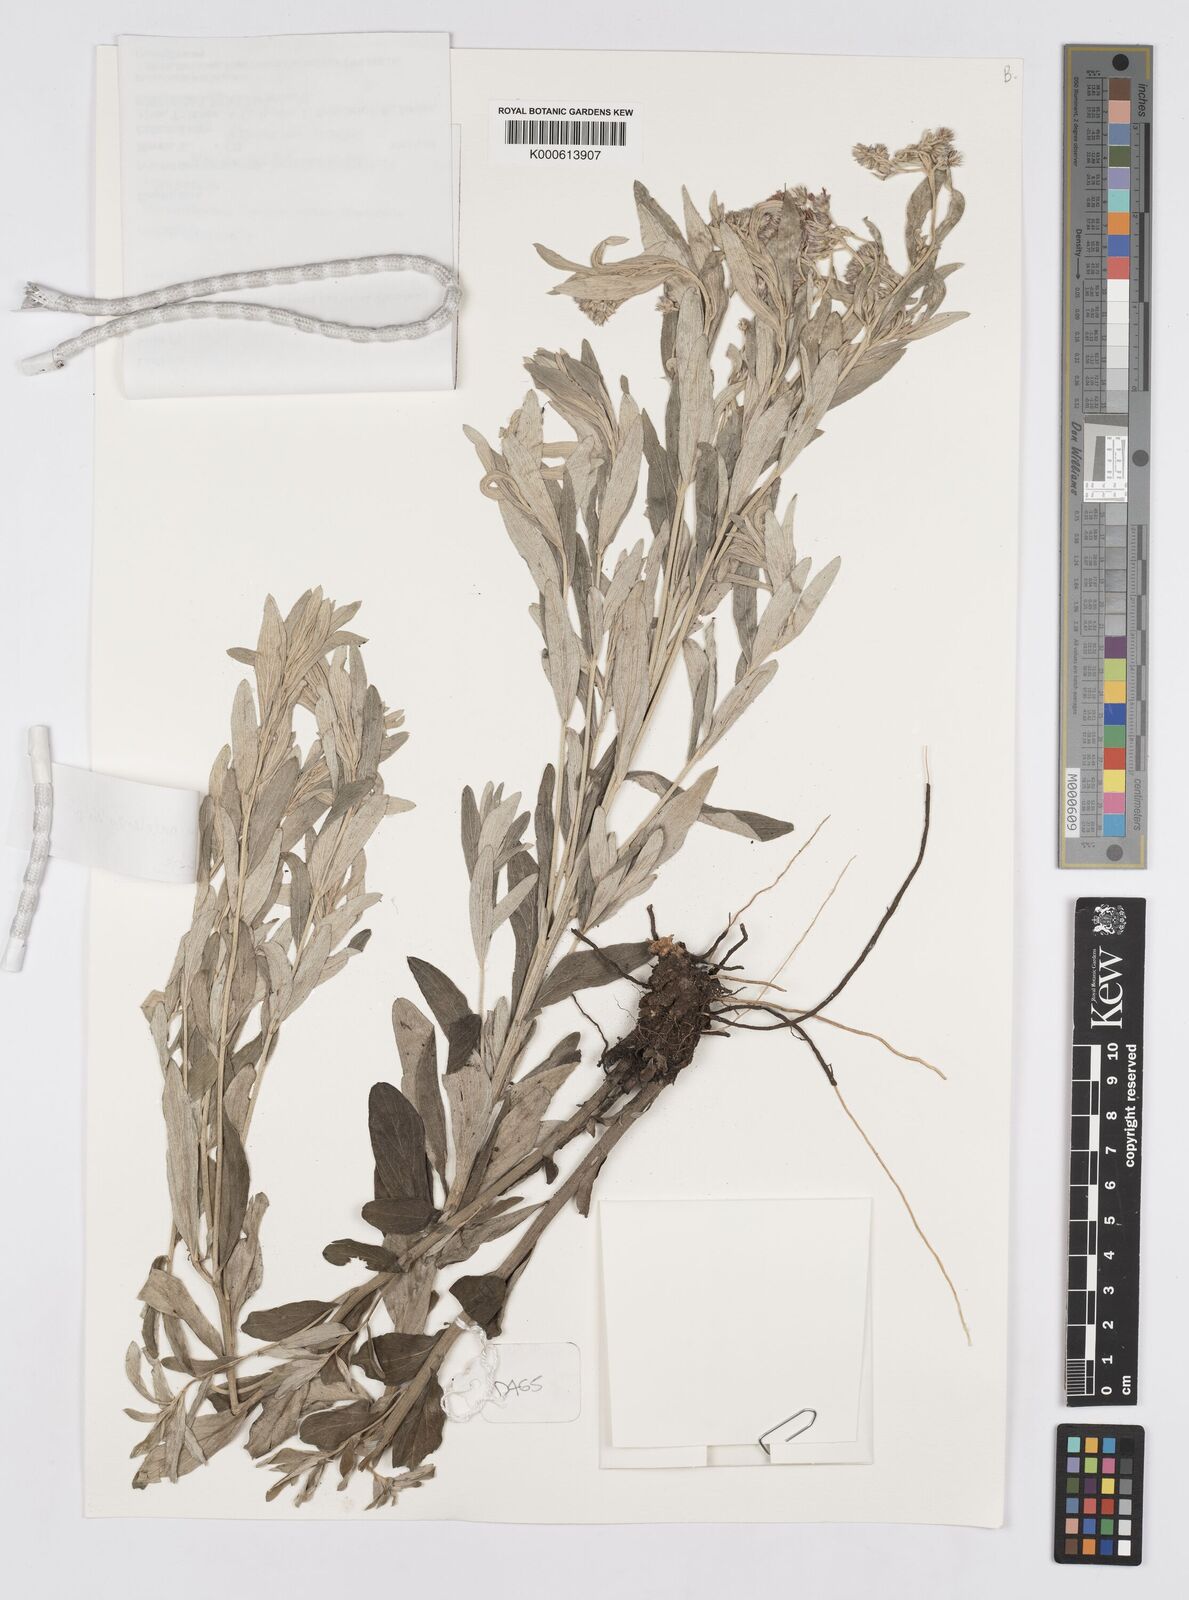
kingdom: Plantae
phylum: Tracheophyta
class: Magnoliopsida
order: Asterales
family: Asteraceae
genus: Hilliardiella
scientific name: Hilliardiella aristata
